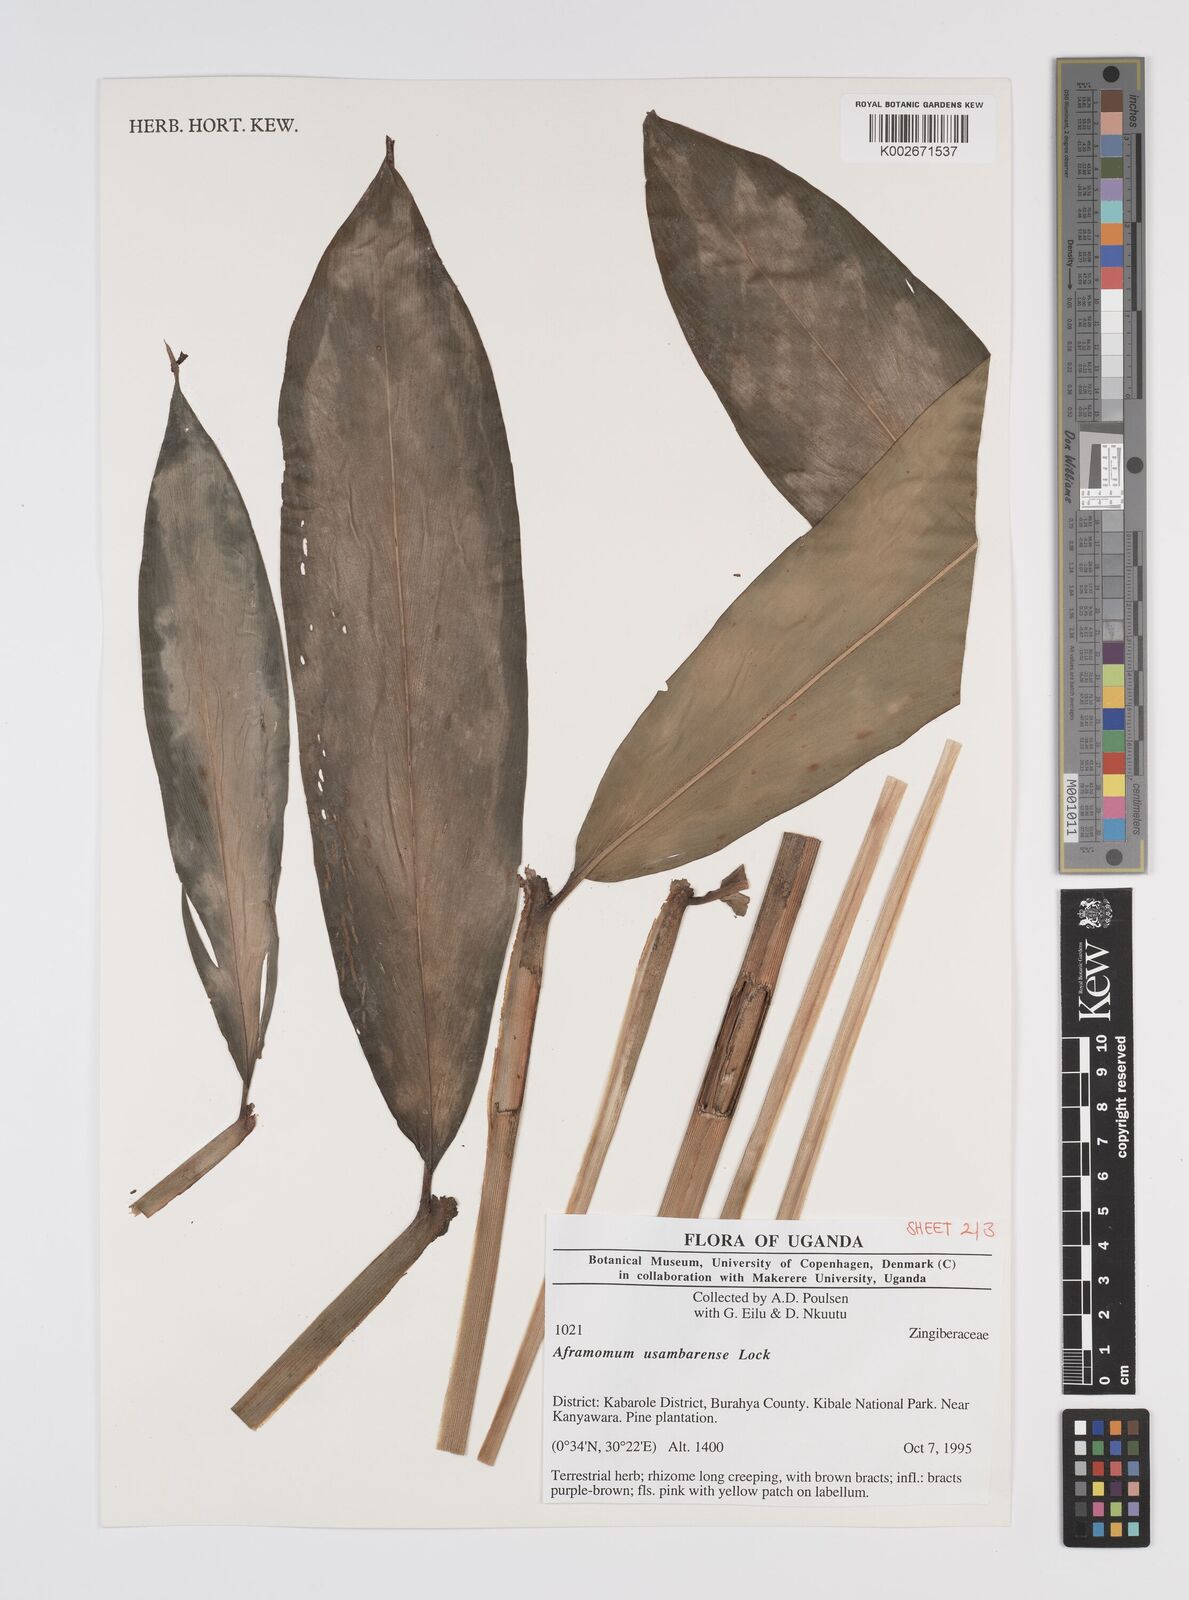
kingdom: Plantae
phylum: Tracheophyta
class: Liliopsida
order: Zingiberales
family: Zingiberaceae
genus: Aframomum
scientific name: Aframomum corrorima
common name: Ethiopian cardamom
